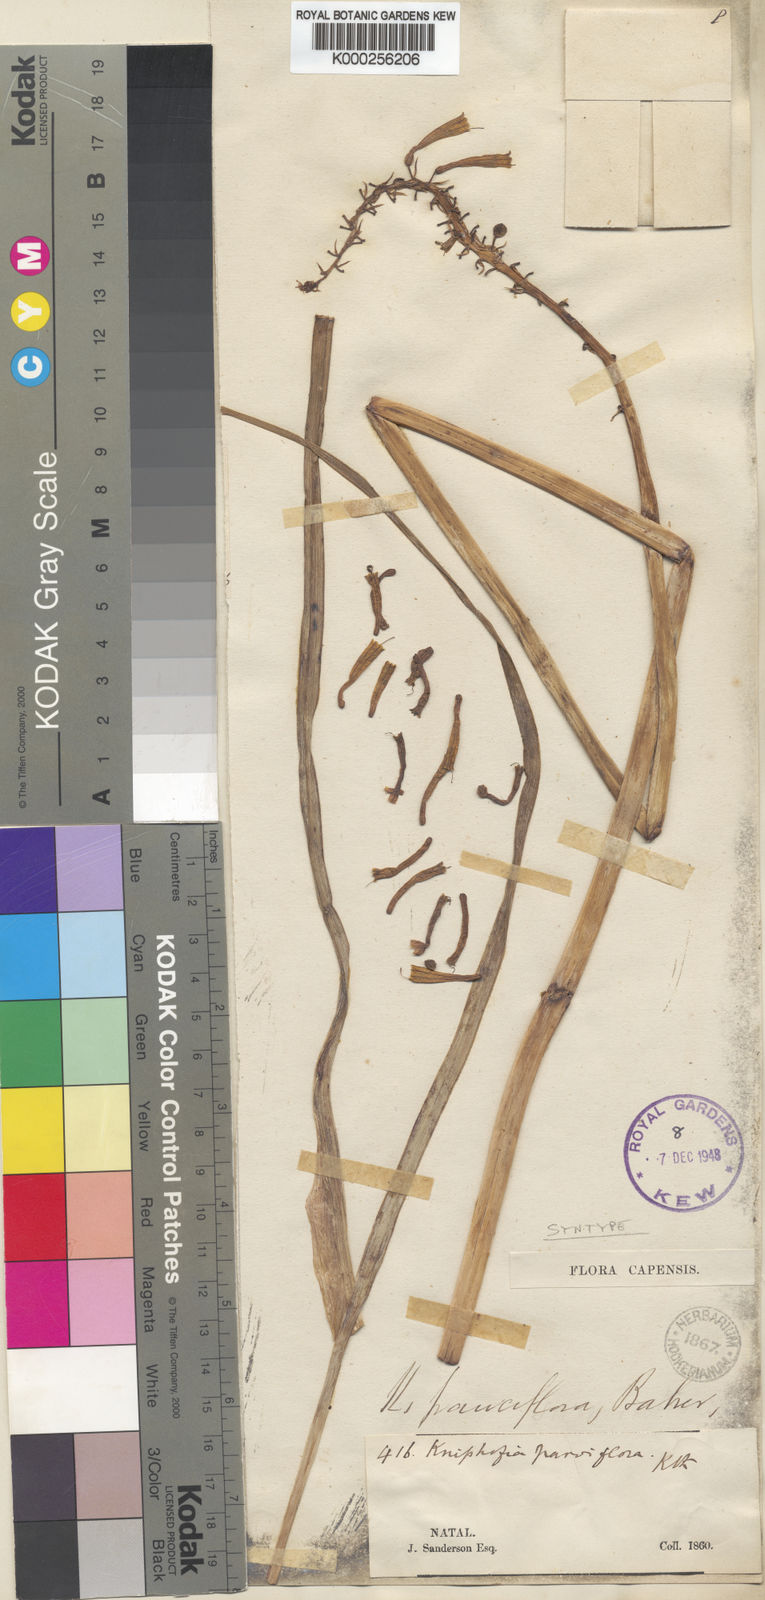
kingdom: Plantae
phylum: Tracheophyta
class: Liliopsida
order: Asparagales
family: Asphodelaceae
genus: Kniphofia
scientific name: Kniphofia pauciflora
